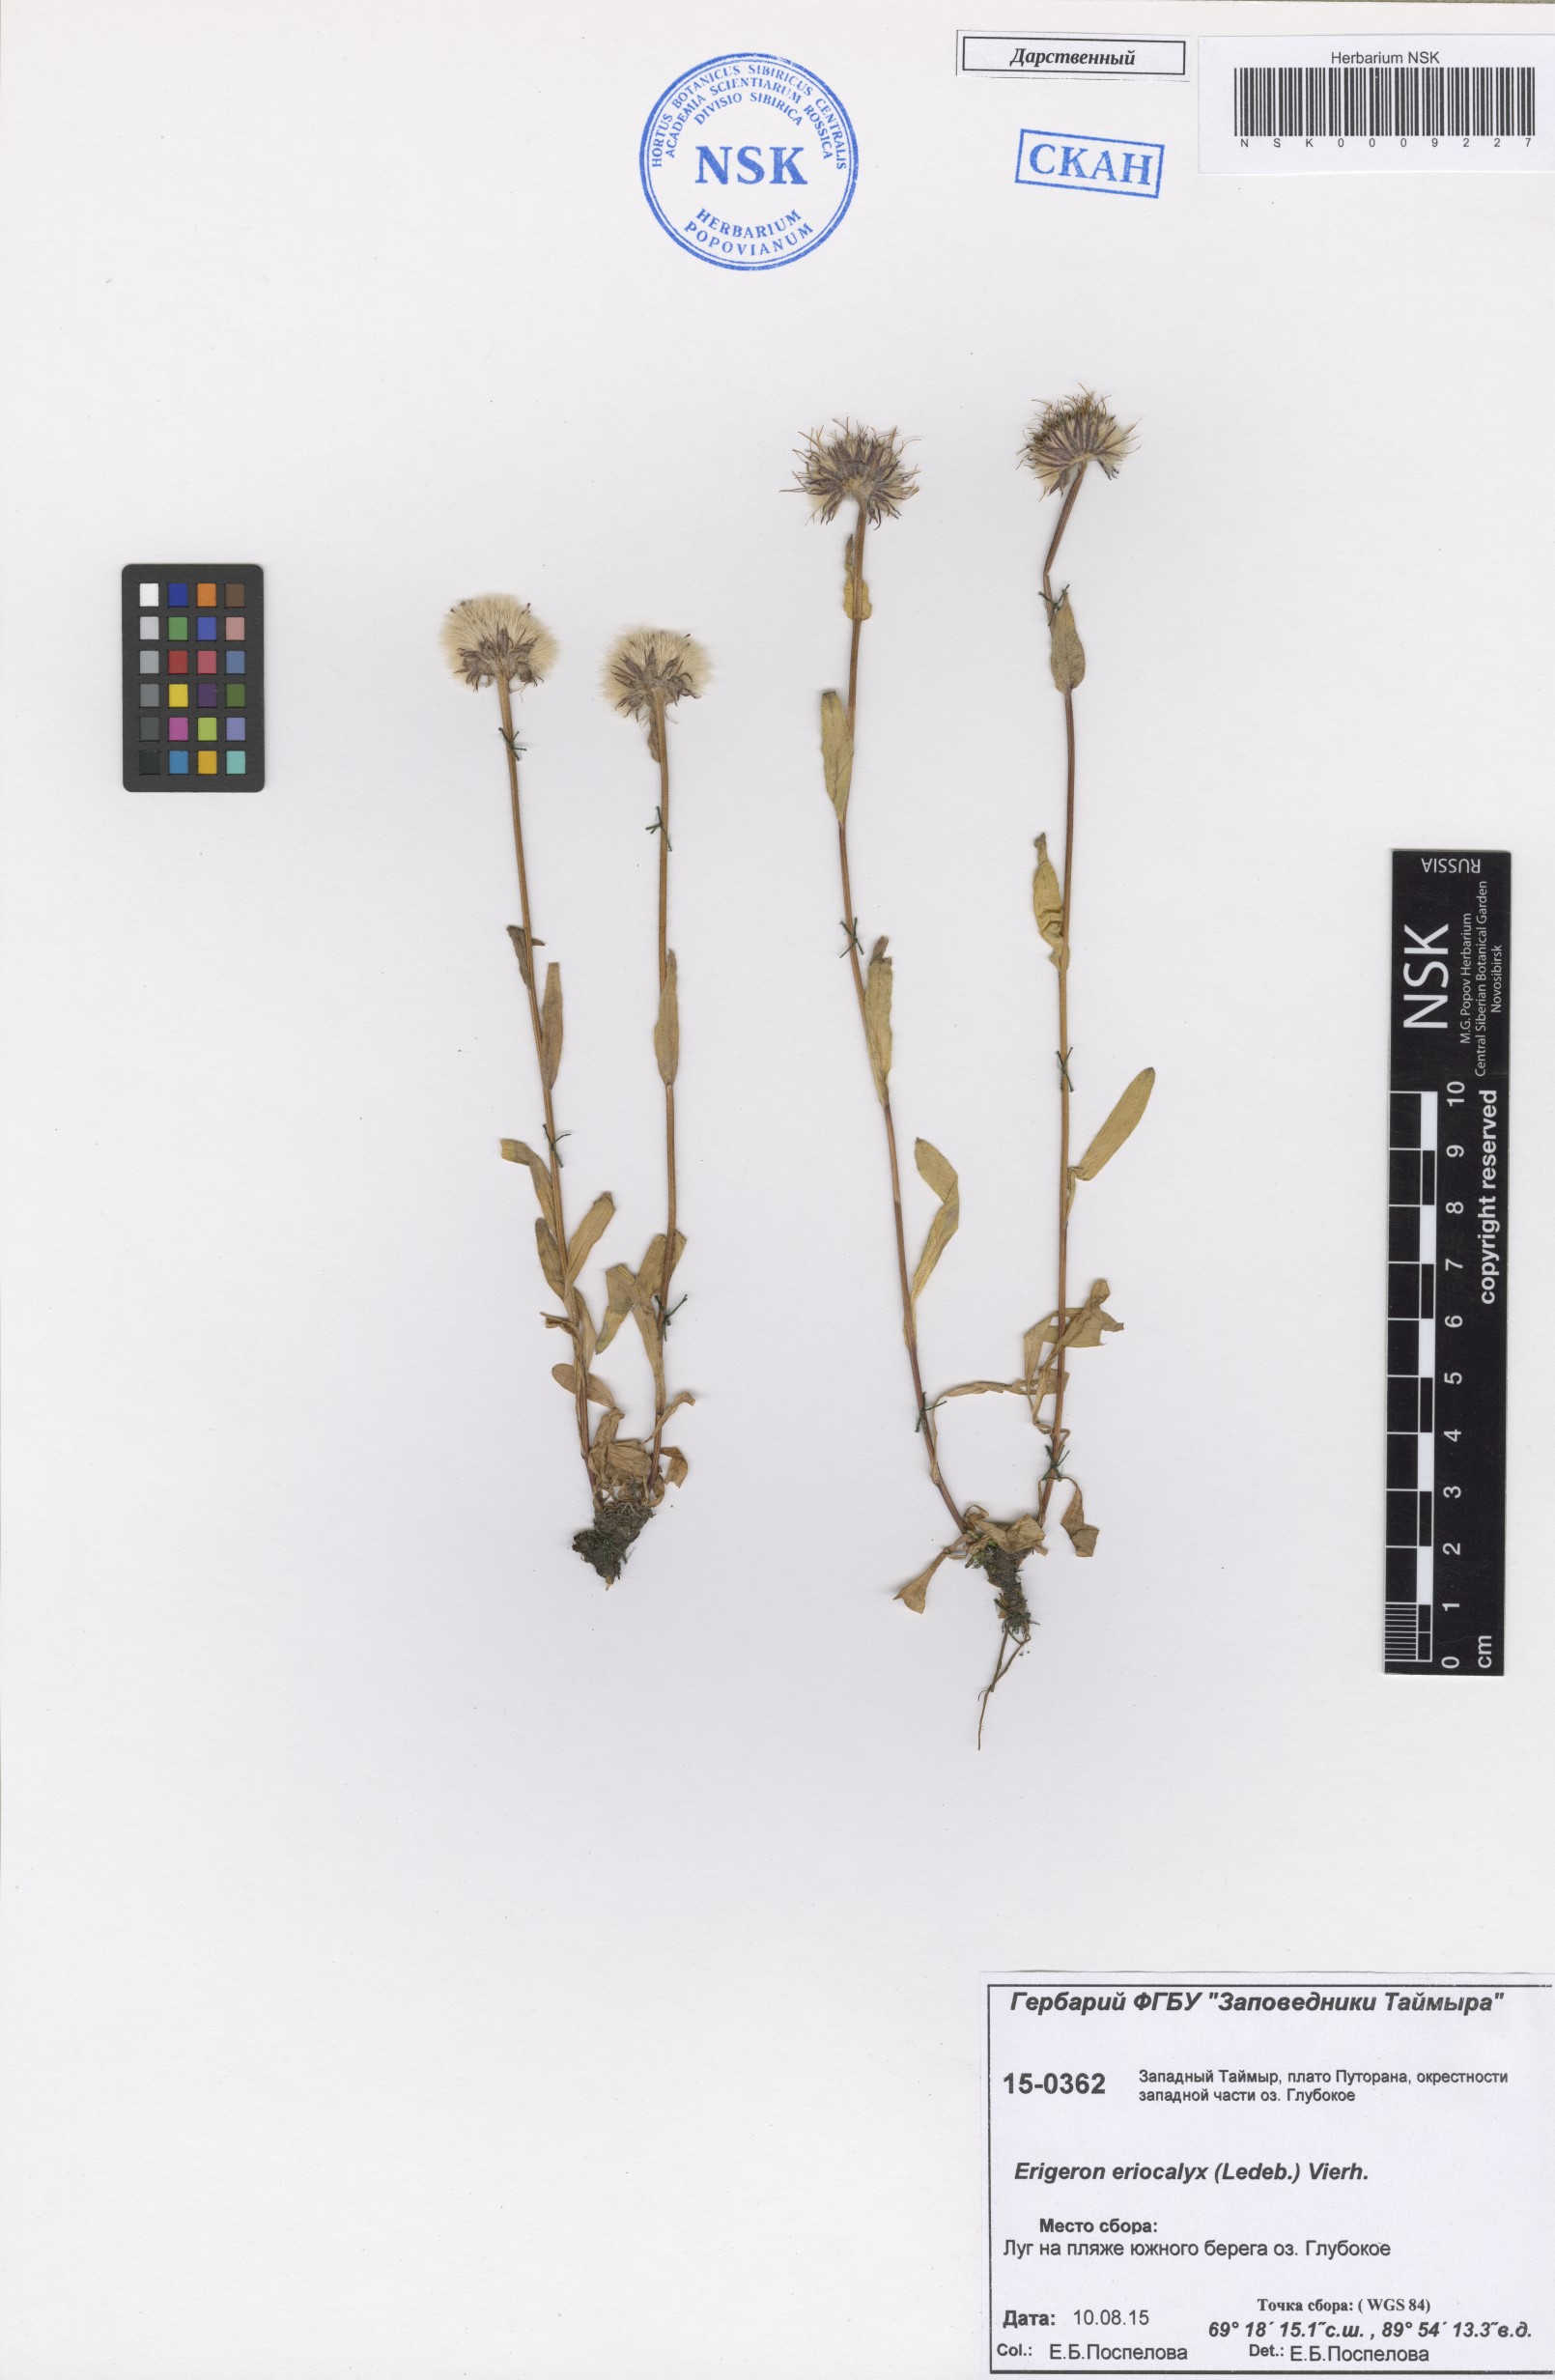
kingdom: Plantae
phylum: Tracheophyta
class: Magnoliopsida
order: Asterales
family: Asteraceae
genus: Erigeron
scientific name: Erigeron eriocalyx
